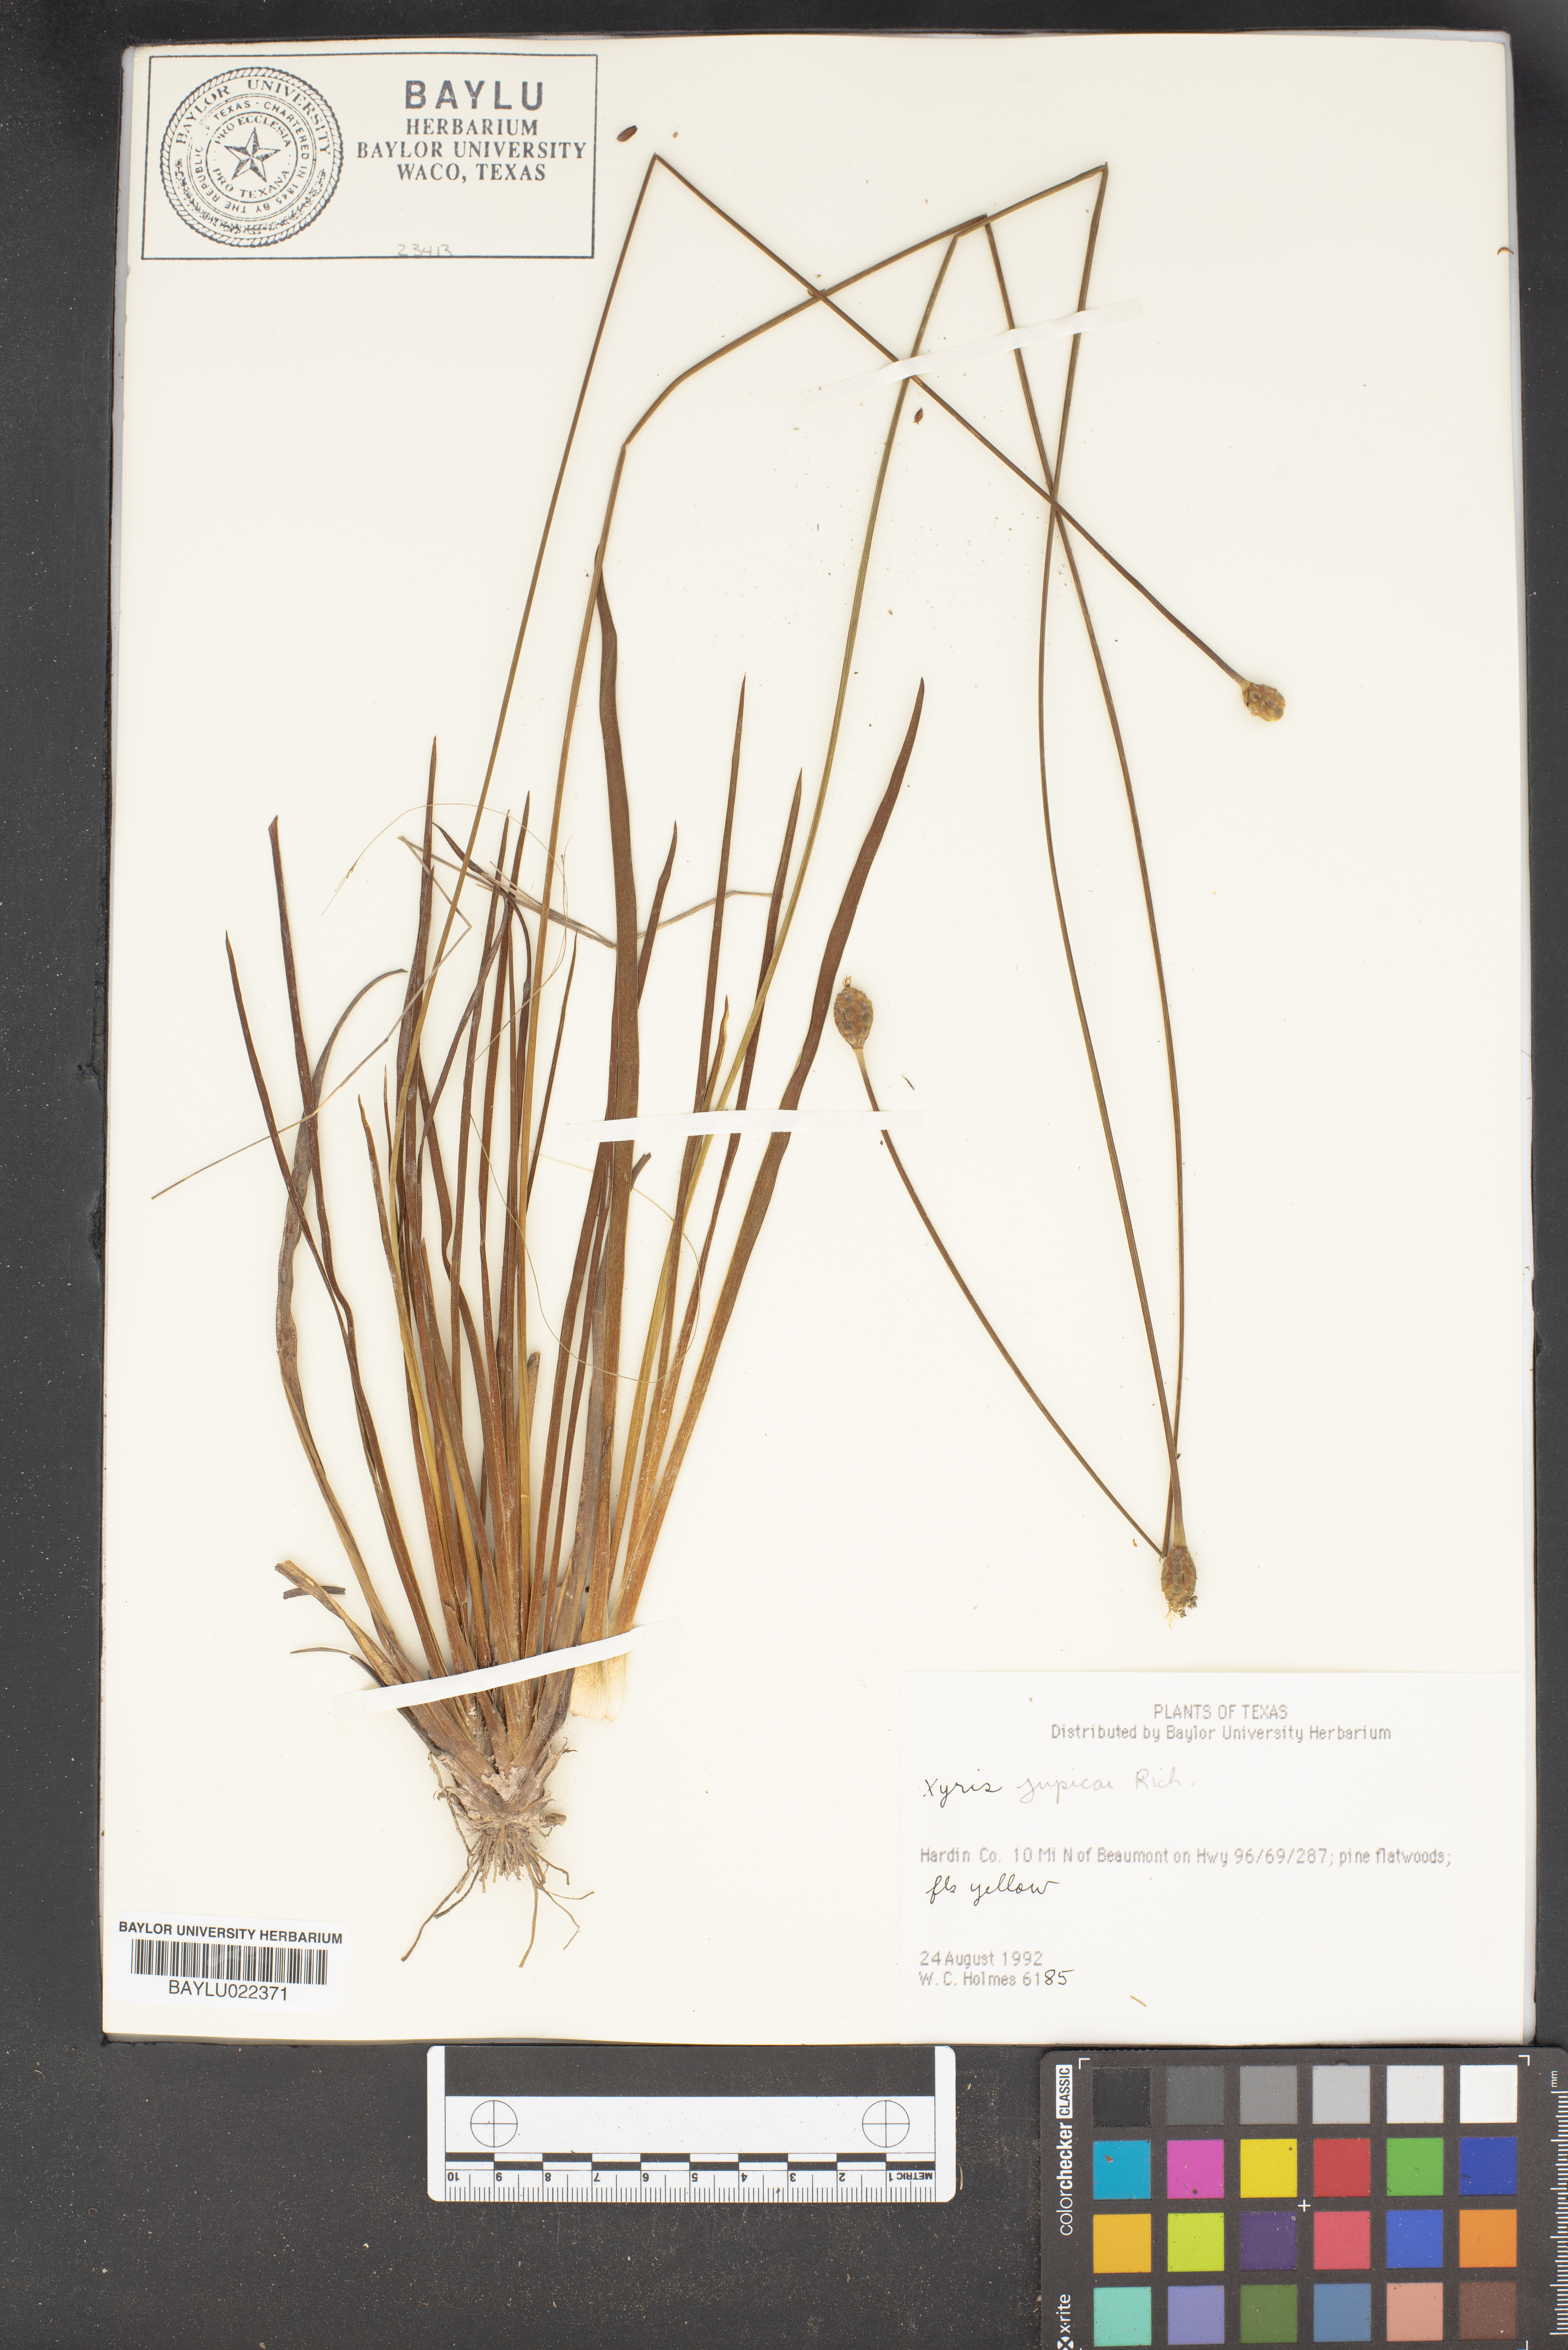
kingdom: Plantae
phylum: Tracheophyta
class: Liliopsida
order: Poales
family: Xyridaceae
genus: Xyris
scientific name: Xyris jupicai
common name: Richard's yelloweyed grass
